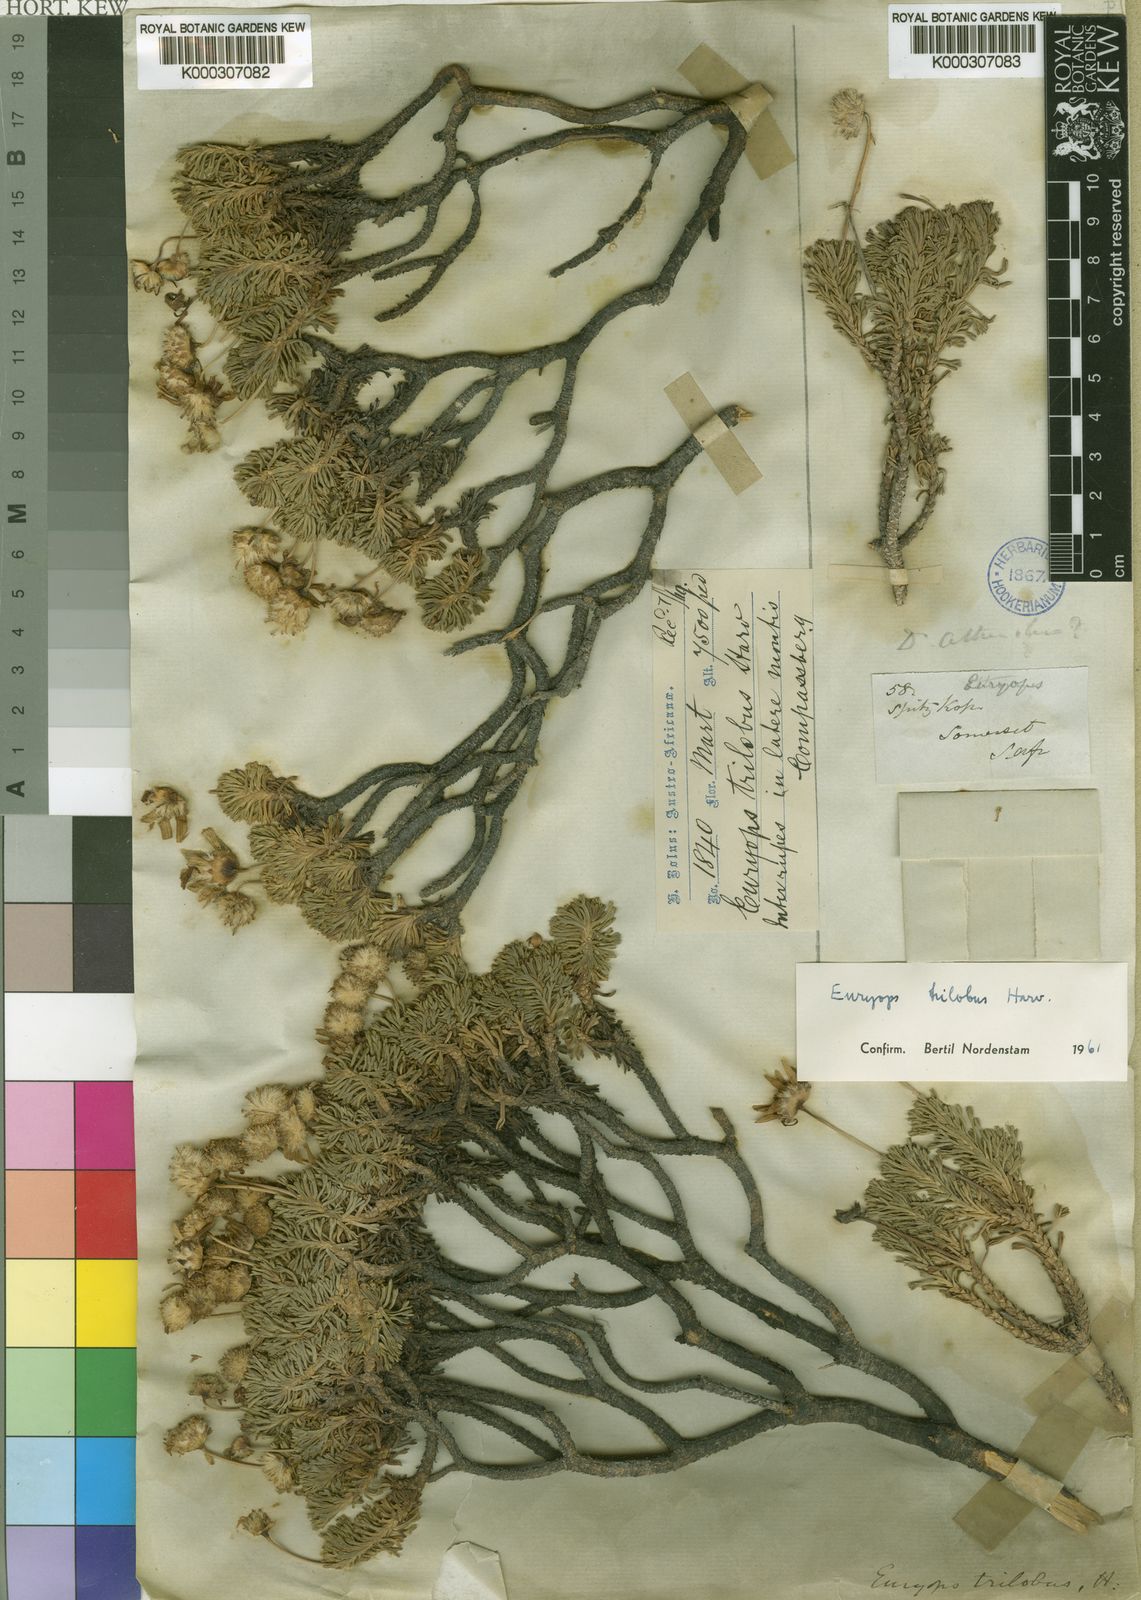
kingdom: Plantae
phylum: Tracheophyta
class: Magnoliopsida
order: Asterales
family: Asteraceae
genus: Euryops
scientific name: Euryops trilobus
